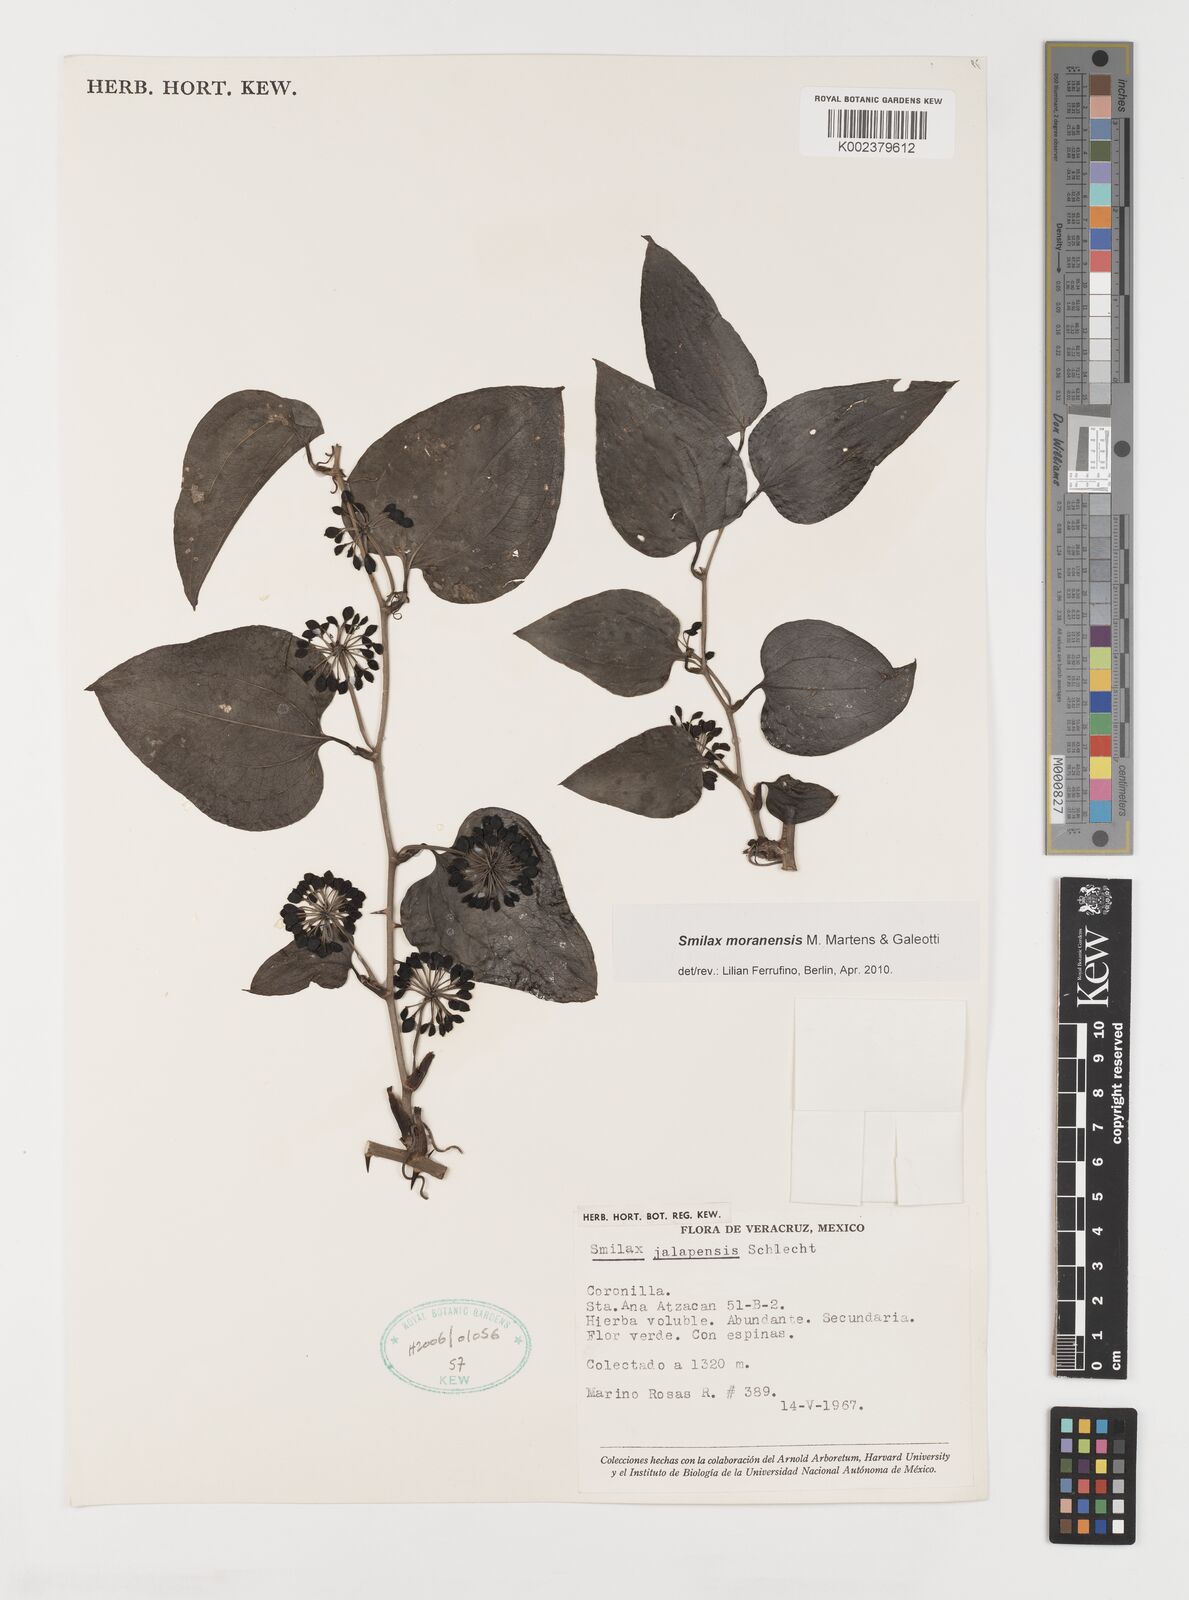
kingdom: Plantae
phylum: Tracheophyta
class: Liliopsida
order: Liliales
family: Smilacaceae
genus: Smilax
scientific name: Smilax moranensis
